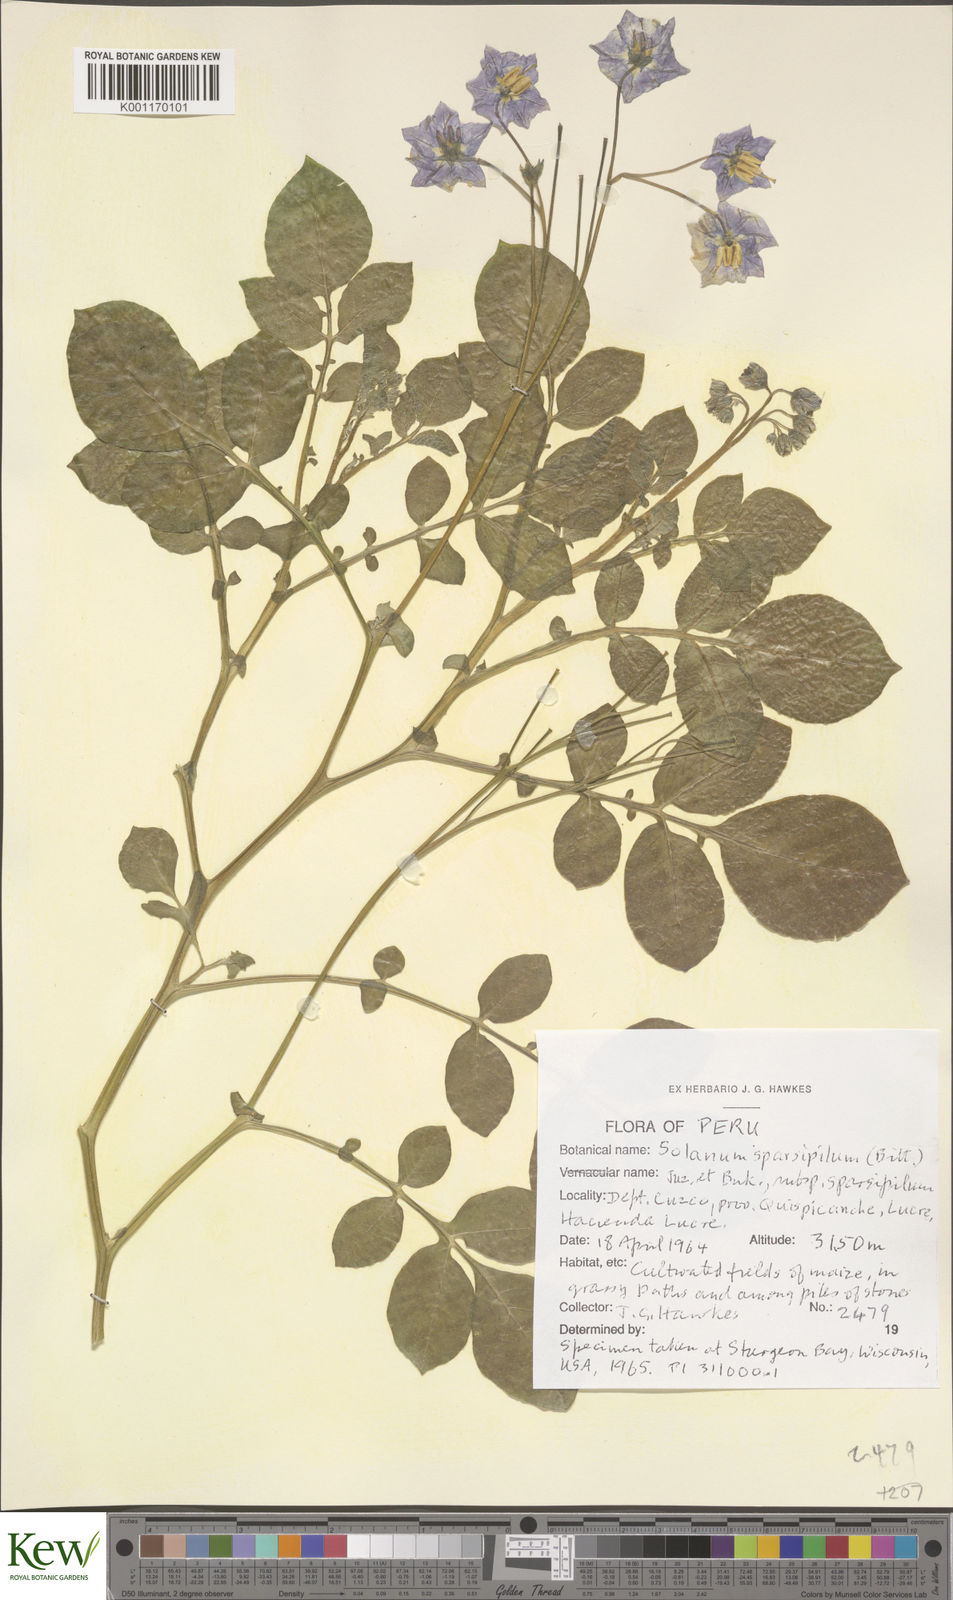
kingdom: Plantae
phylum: Tracheophyta
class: Magnoliopsida
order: Solanales
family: Solanaceae
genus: Solanum
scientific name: Solanum brevicaule
